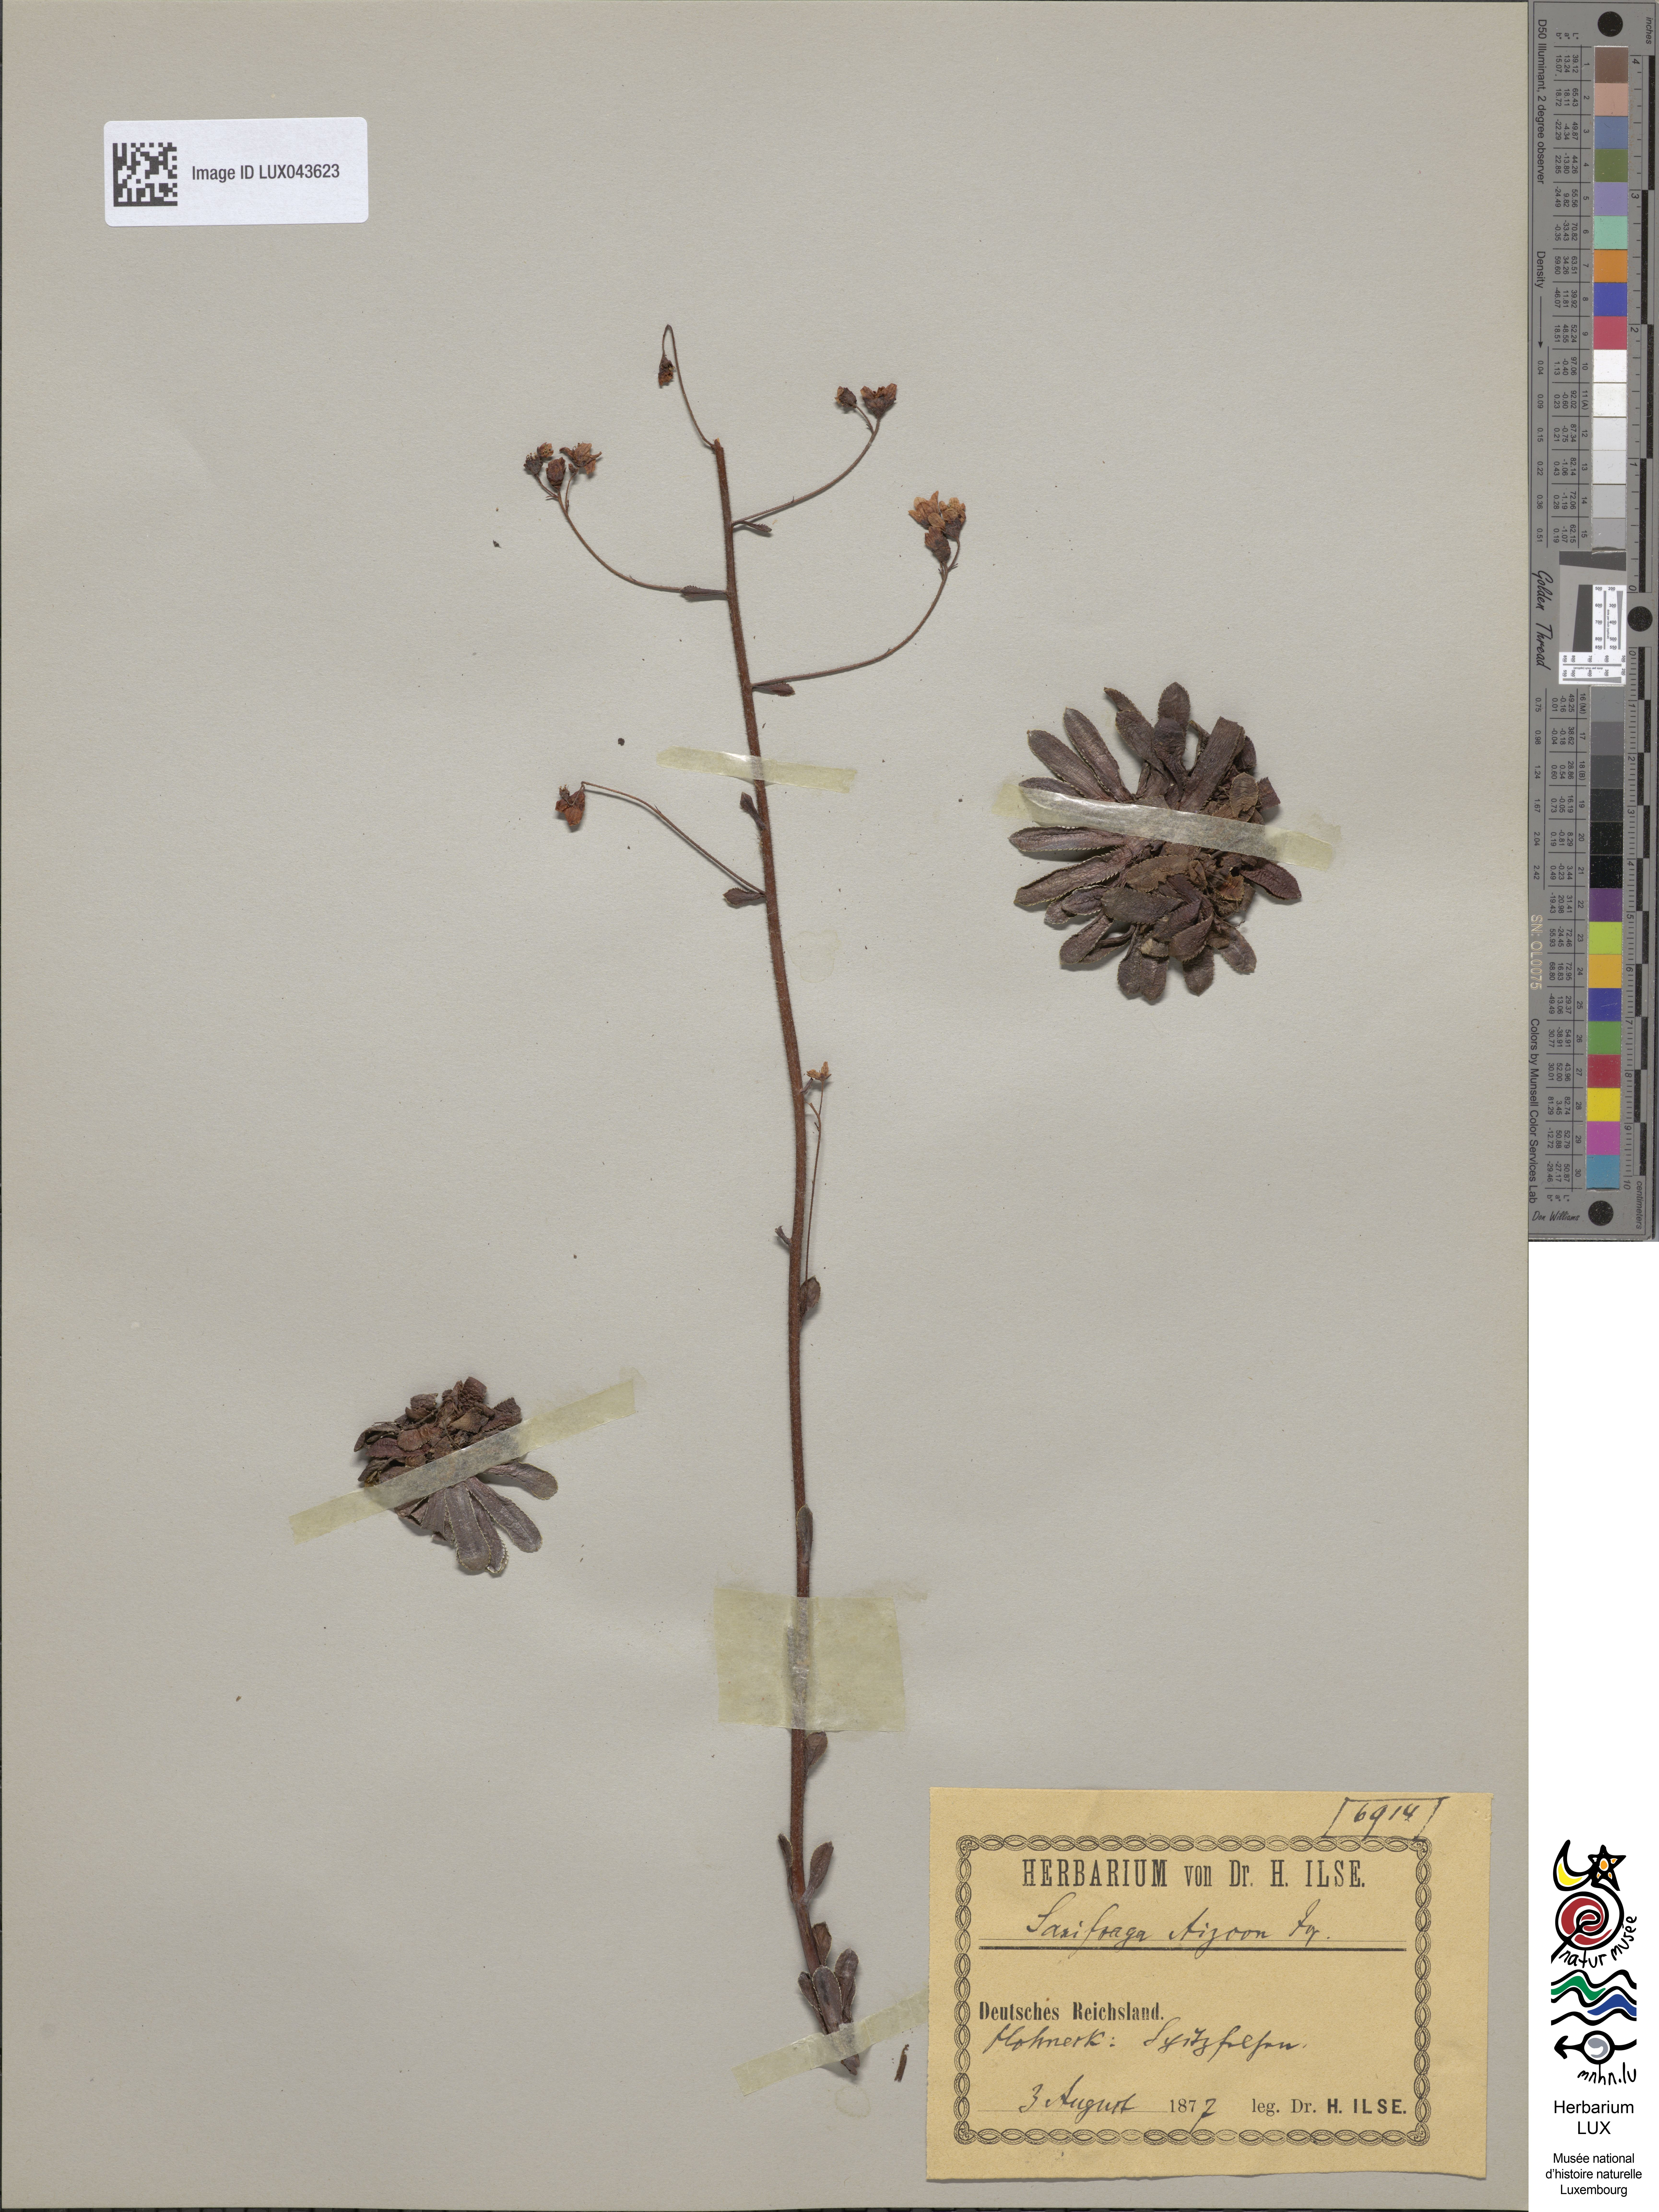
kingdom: Plantae
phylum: Tracheophyta
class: Magnoliopsida
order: Saxifragales
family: Saxifragaceae
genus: Saxifraga
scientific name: Saxifraga paniculata
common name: Livelong saxifrage
